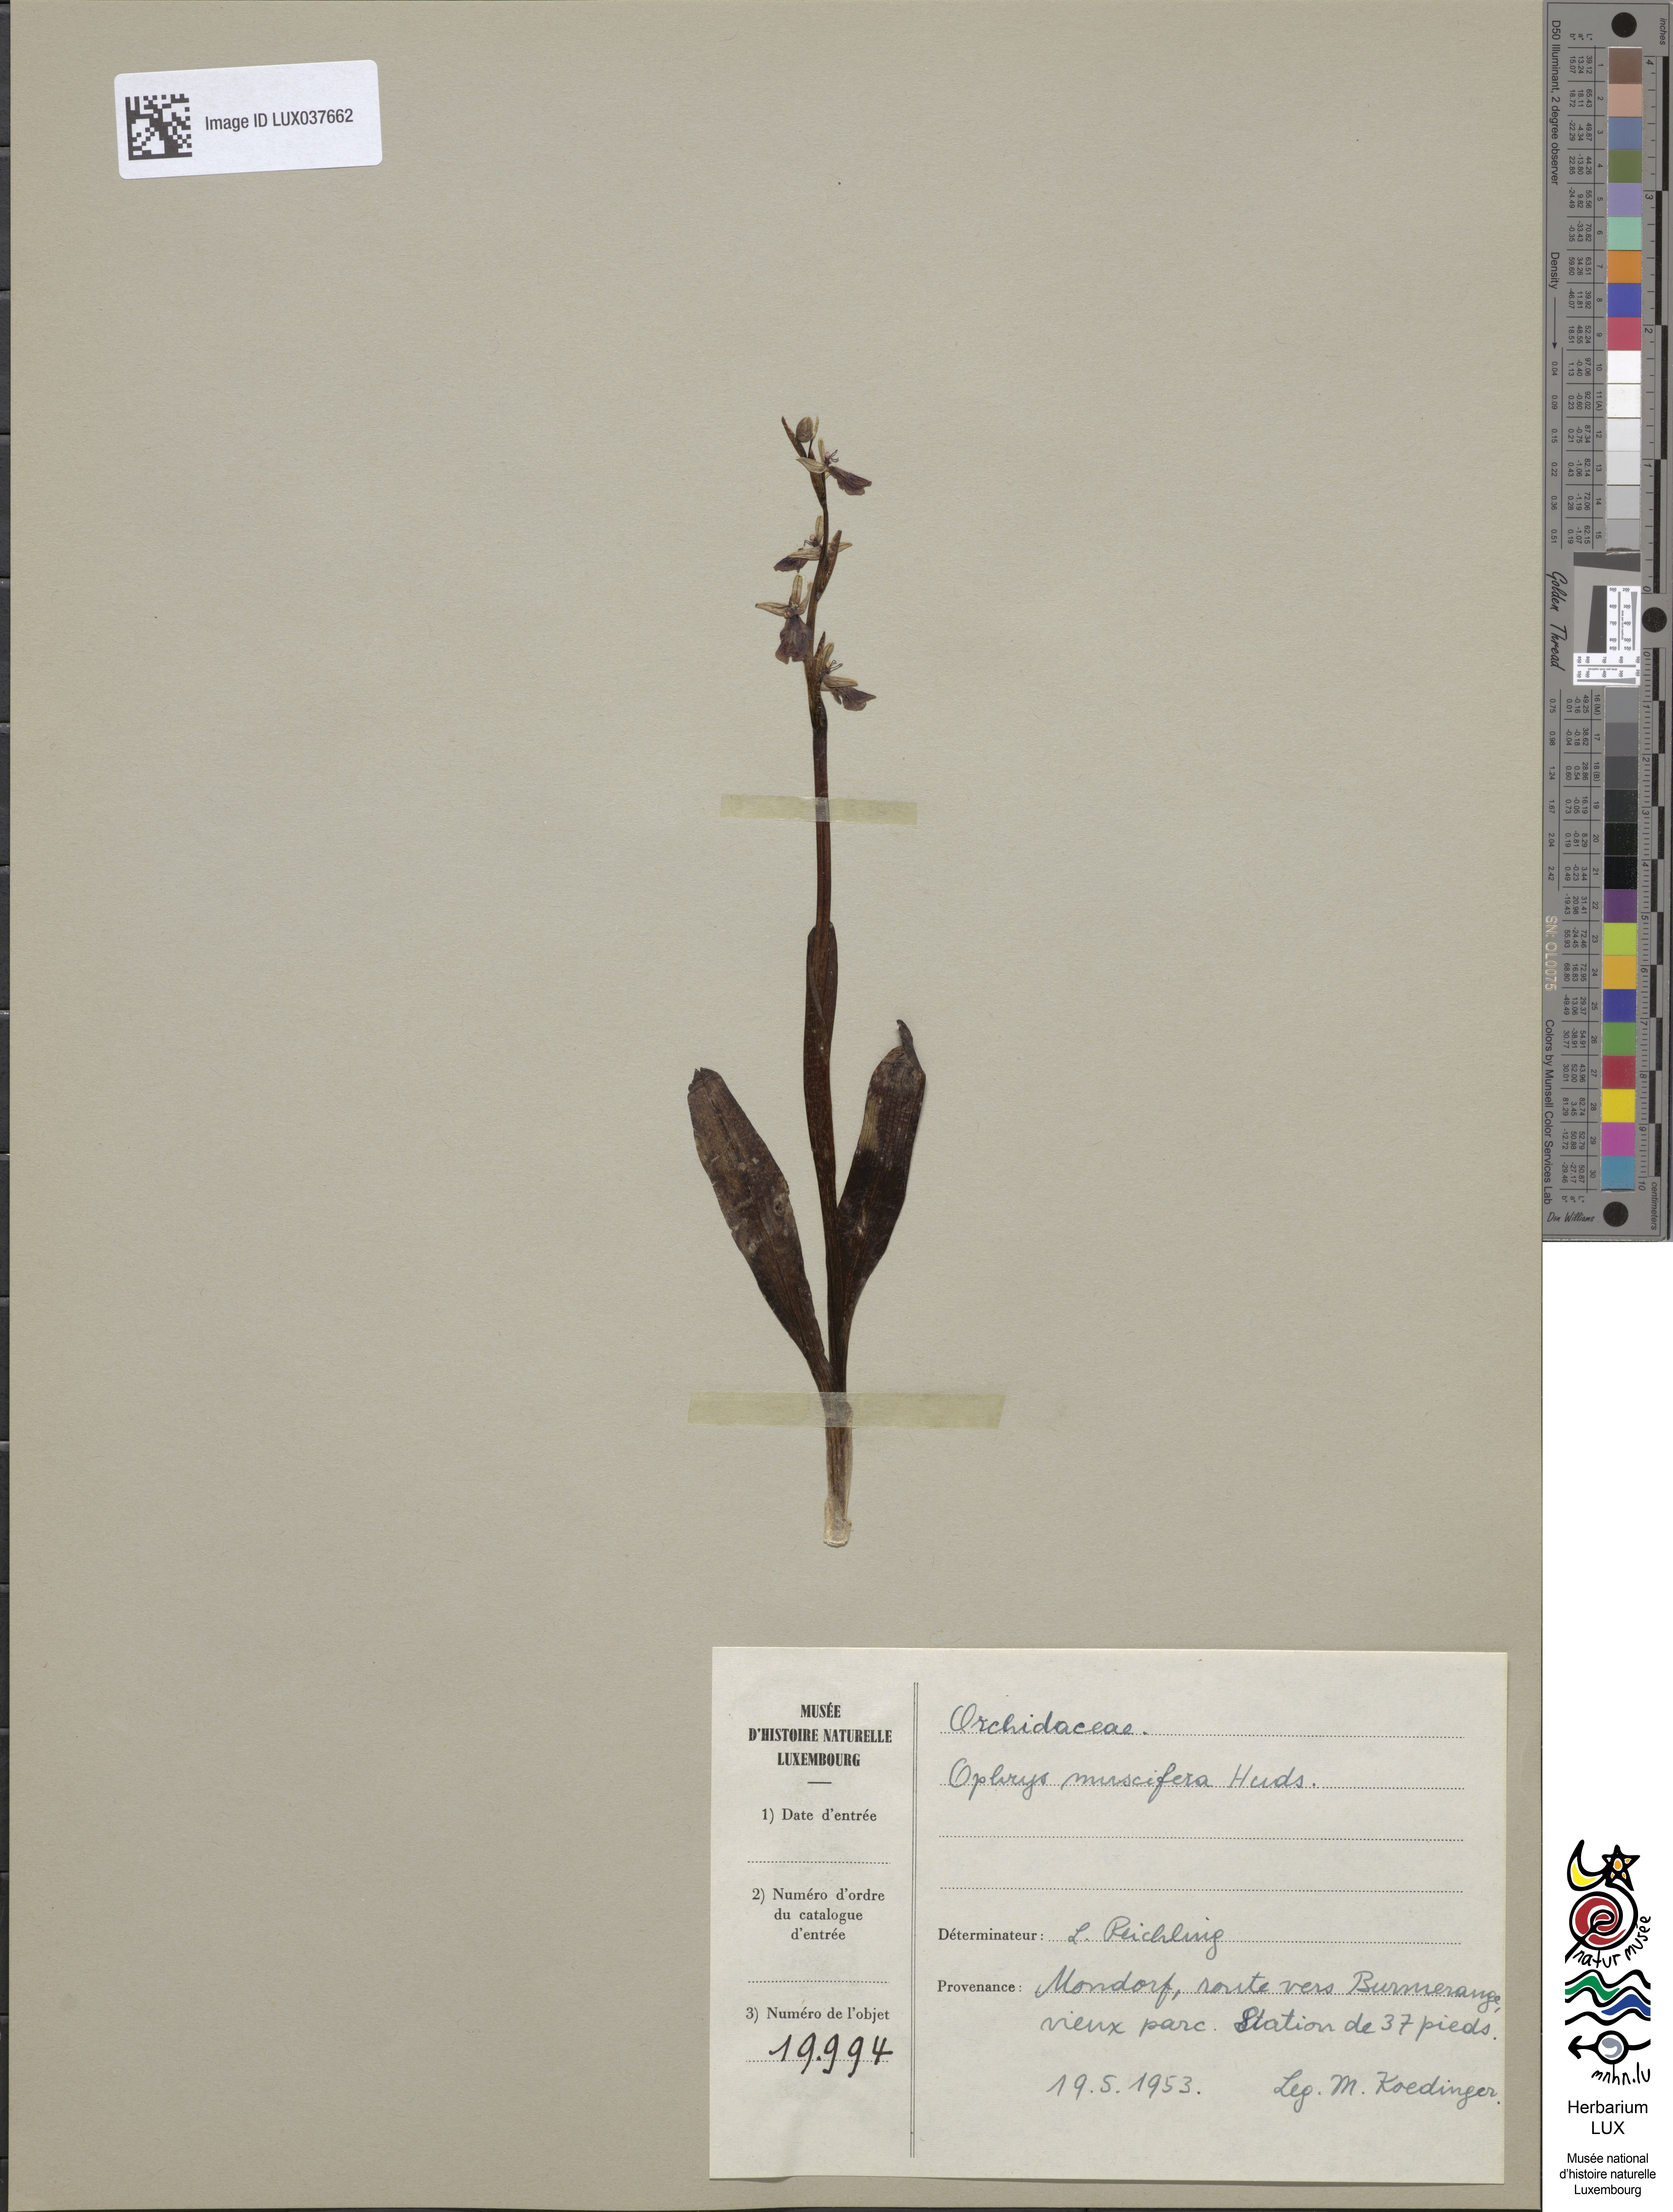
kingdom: Plantae
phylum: Tracheophyta
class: Liliopsida
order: Asparagales
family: Orchidaceae
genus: Ophrys
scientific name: Ophrys insectifera
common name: Fly orchid
